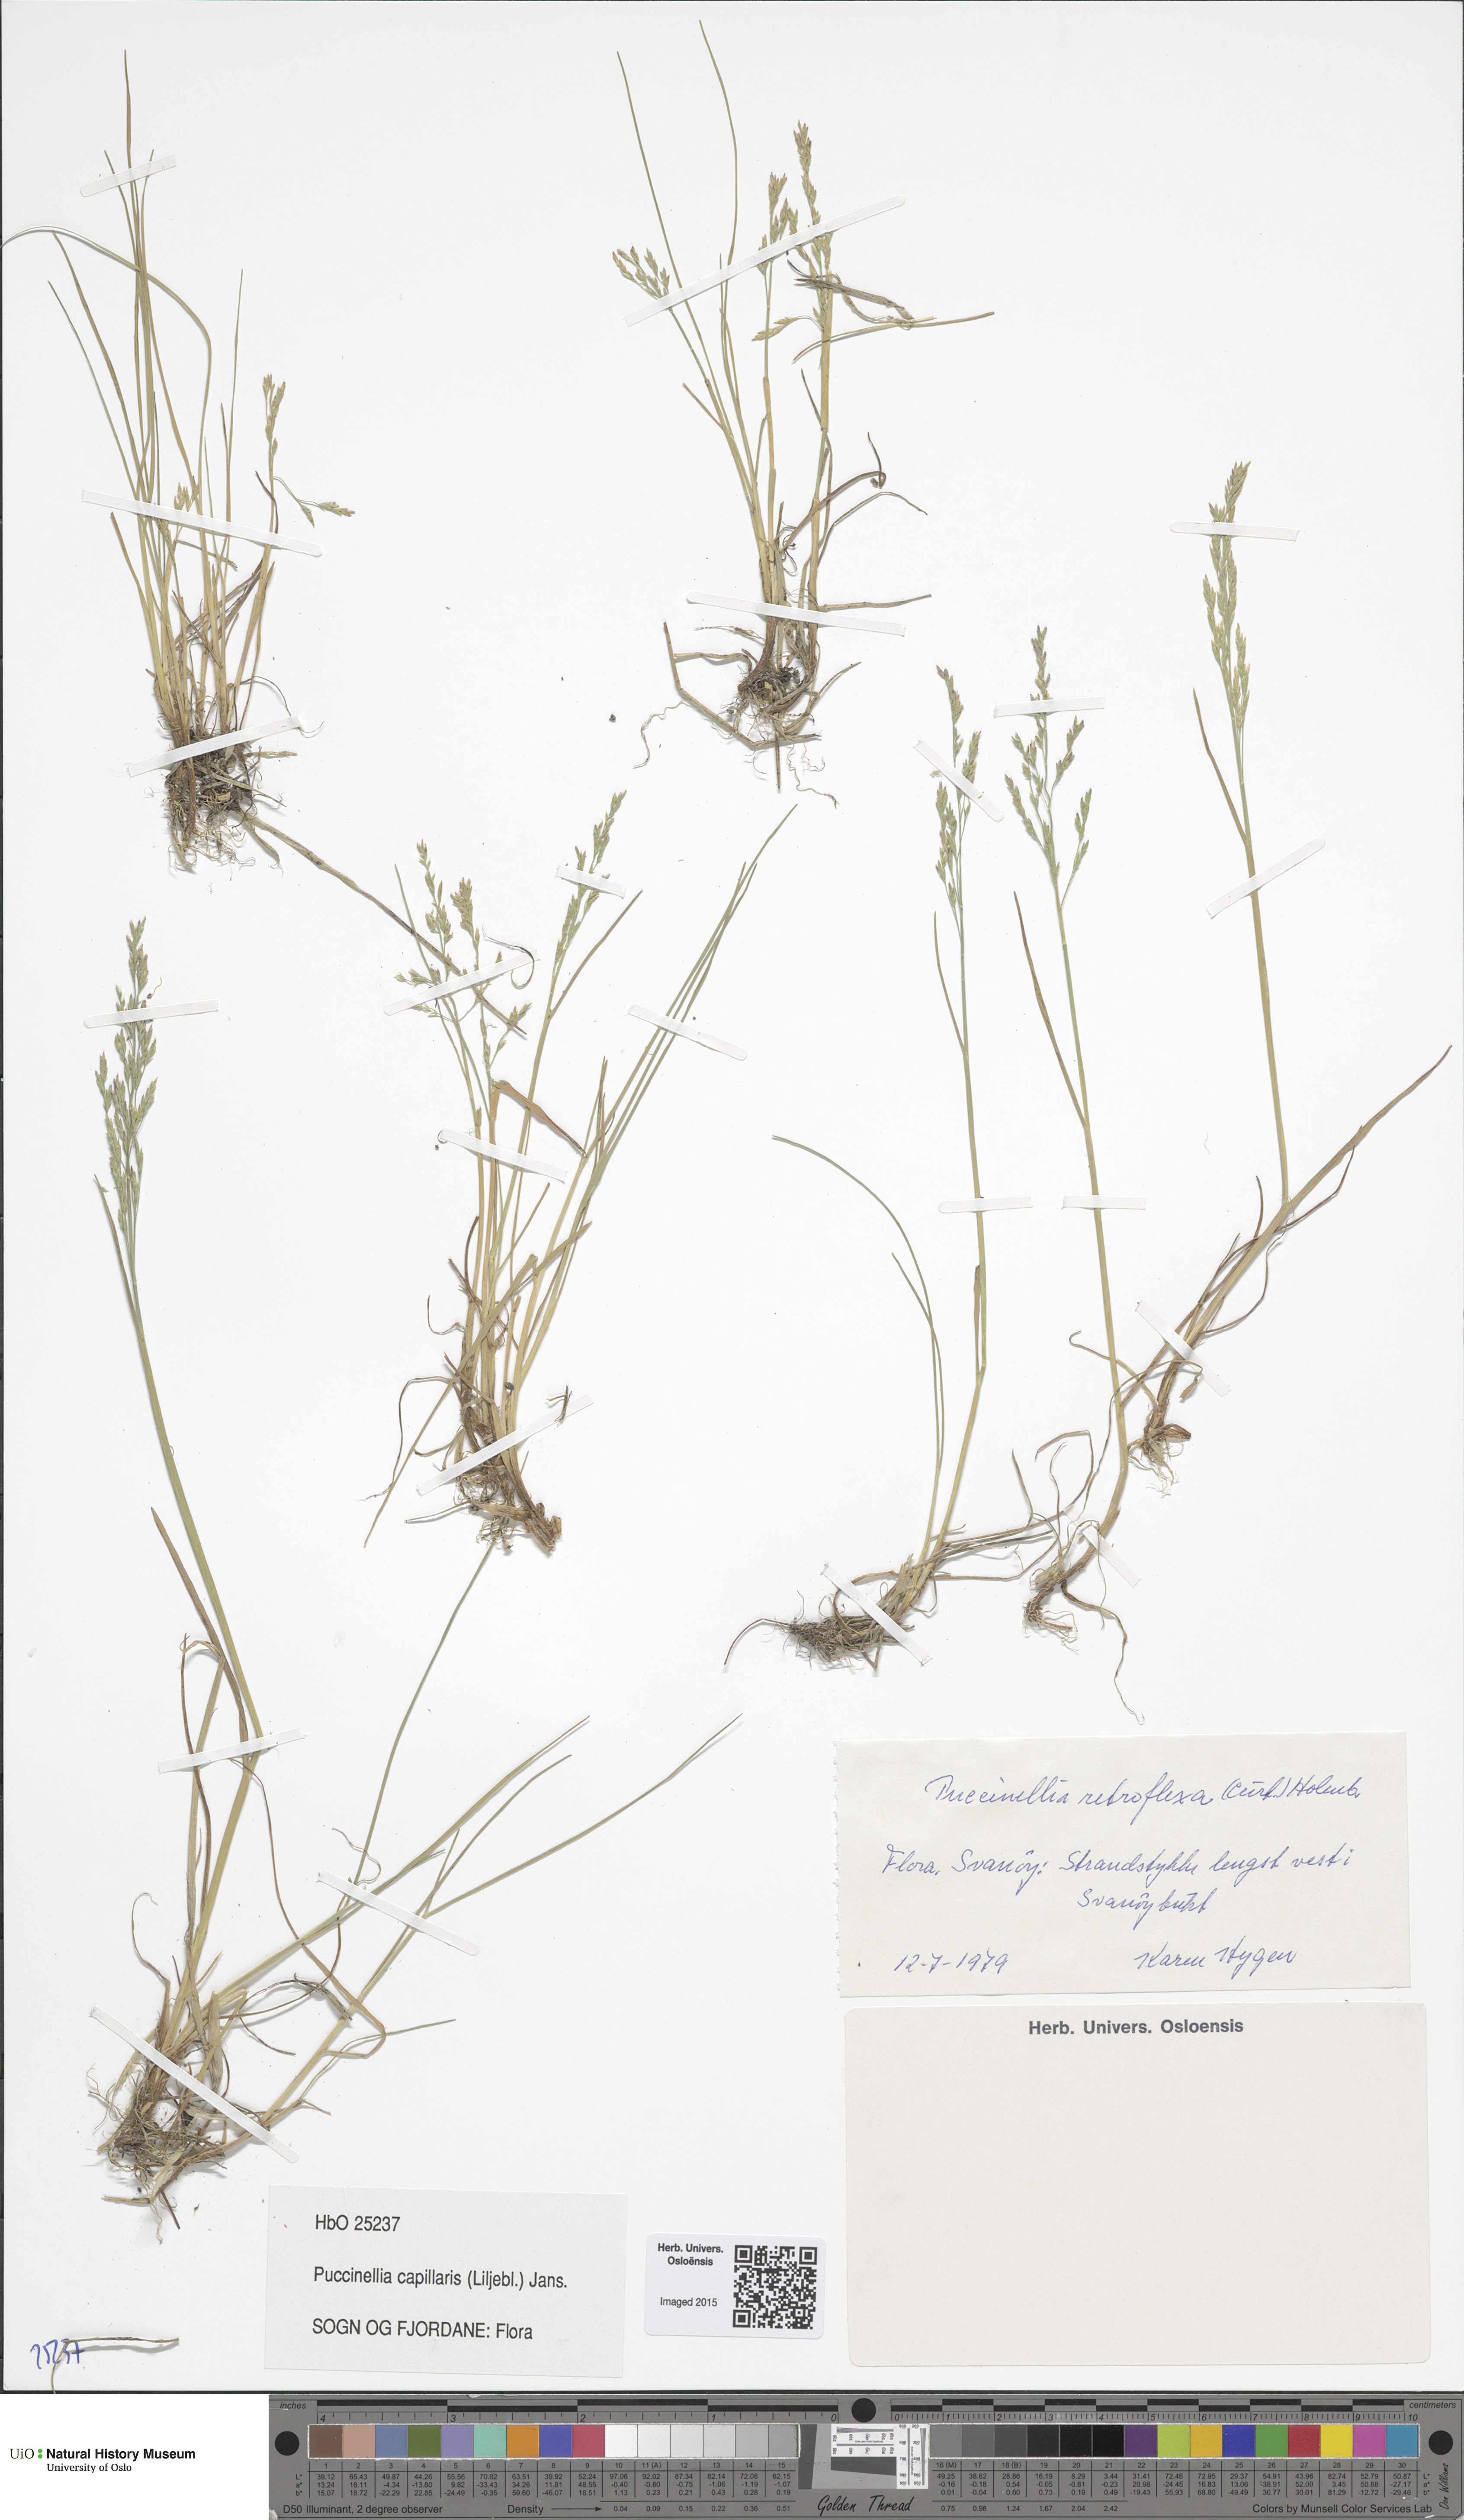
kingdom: Plantae
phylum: Tracheophyta
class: Liliopsida
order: Poales
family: Poaceae
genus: Puccinellia
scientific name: Puccinellia distans
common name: Weeping alkaligrass
